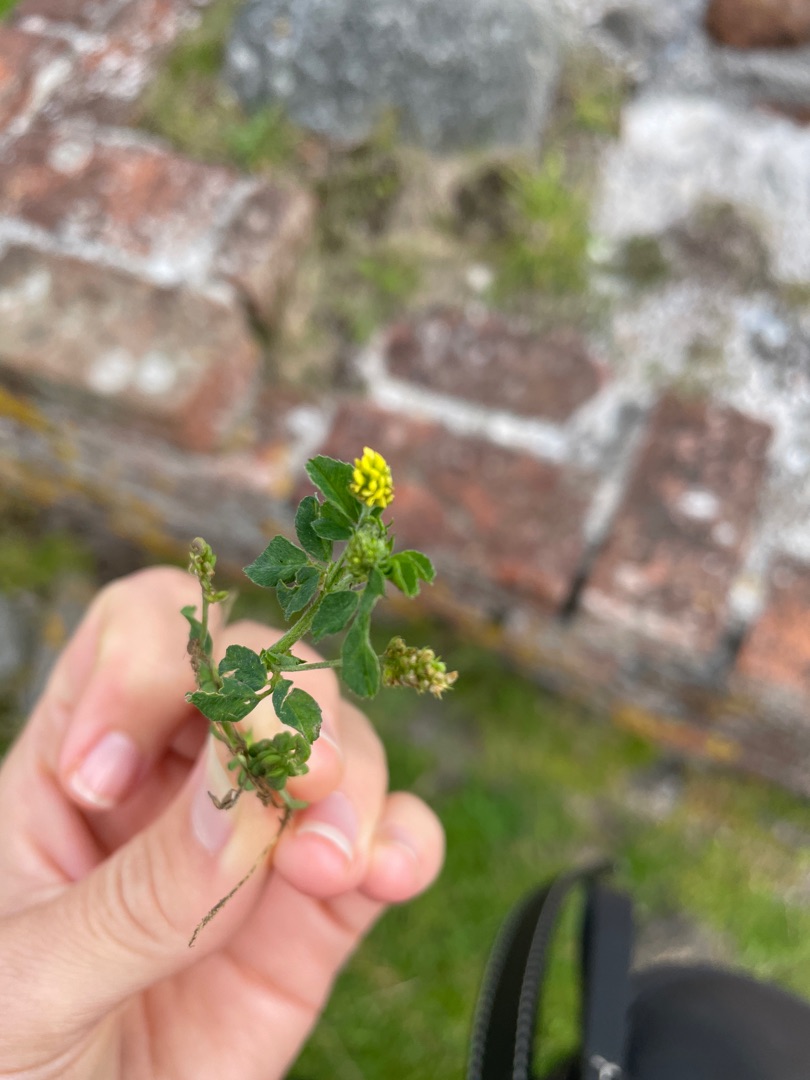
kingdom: Plantae
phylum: Tracheophyta
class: Magnoliopsida
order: Fabales
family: Fabaceae
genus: Medicago
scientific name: Medicago lupulina
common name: Humle-sneglebælg
